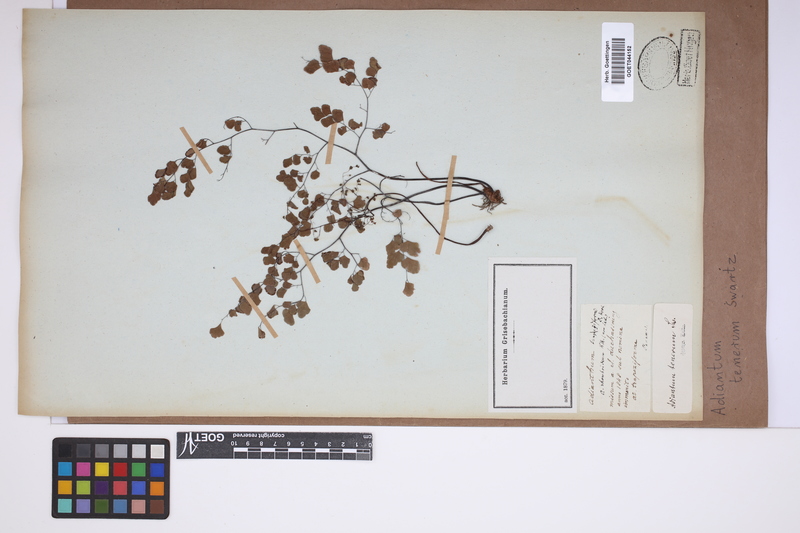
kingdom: Plantae
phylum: Tracheophyta
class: Polypodiopsida
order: Polypodiales
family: Pteridaceae
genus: Adiantum
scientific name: Adiantum tenerum
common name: Fan maidenhair
